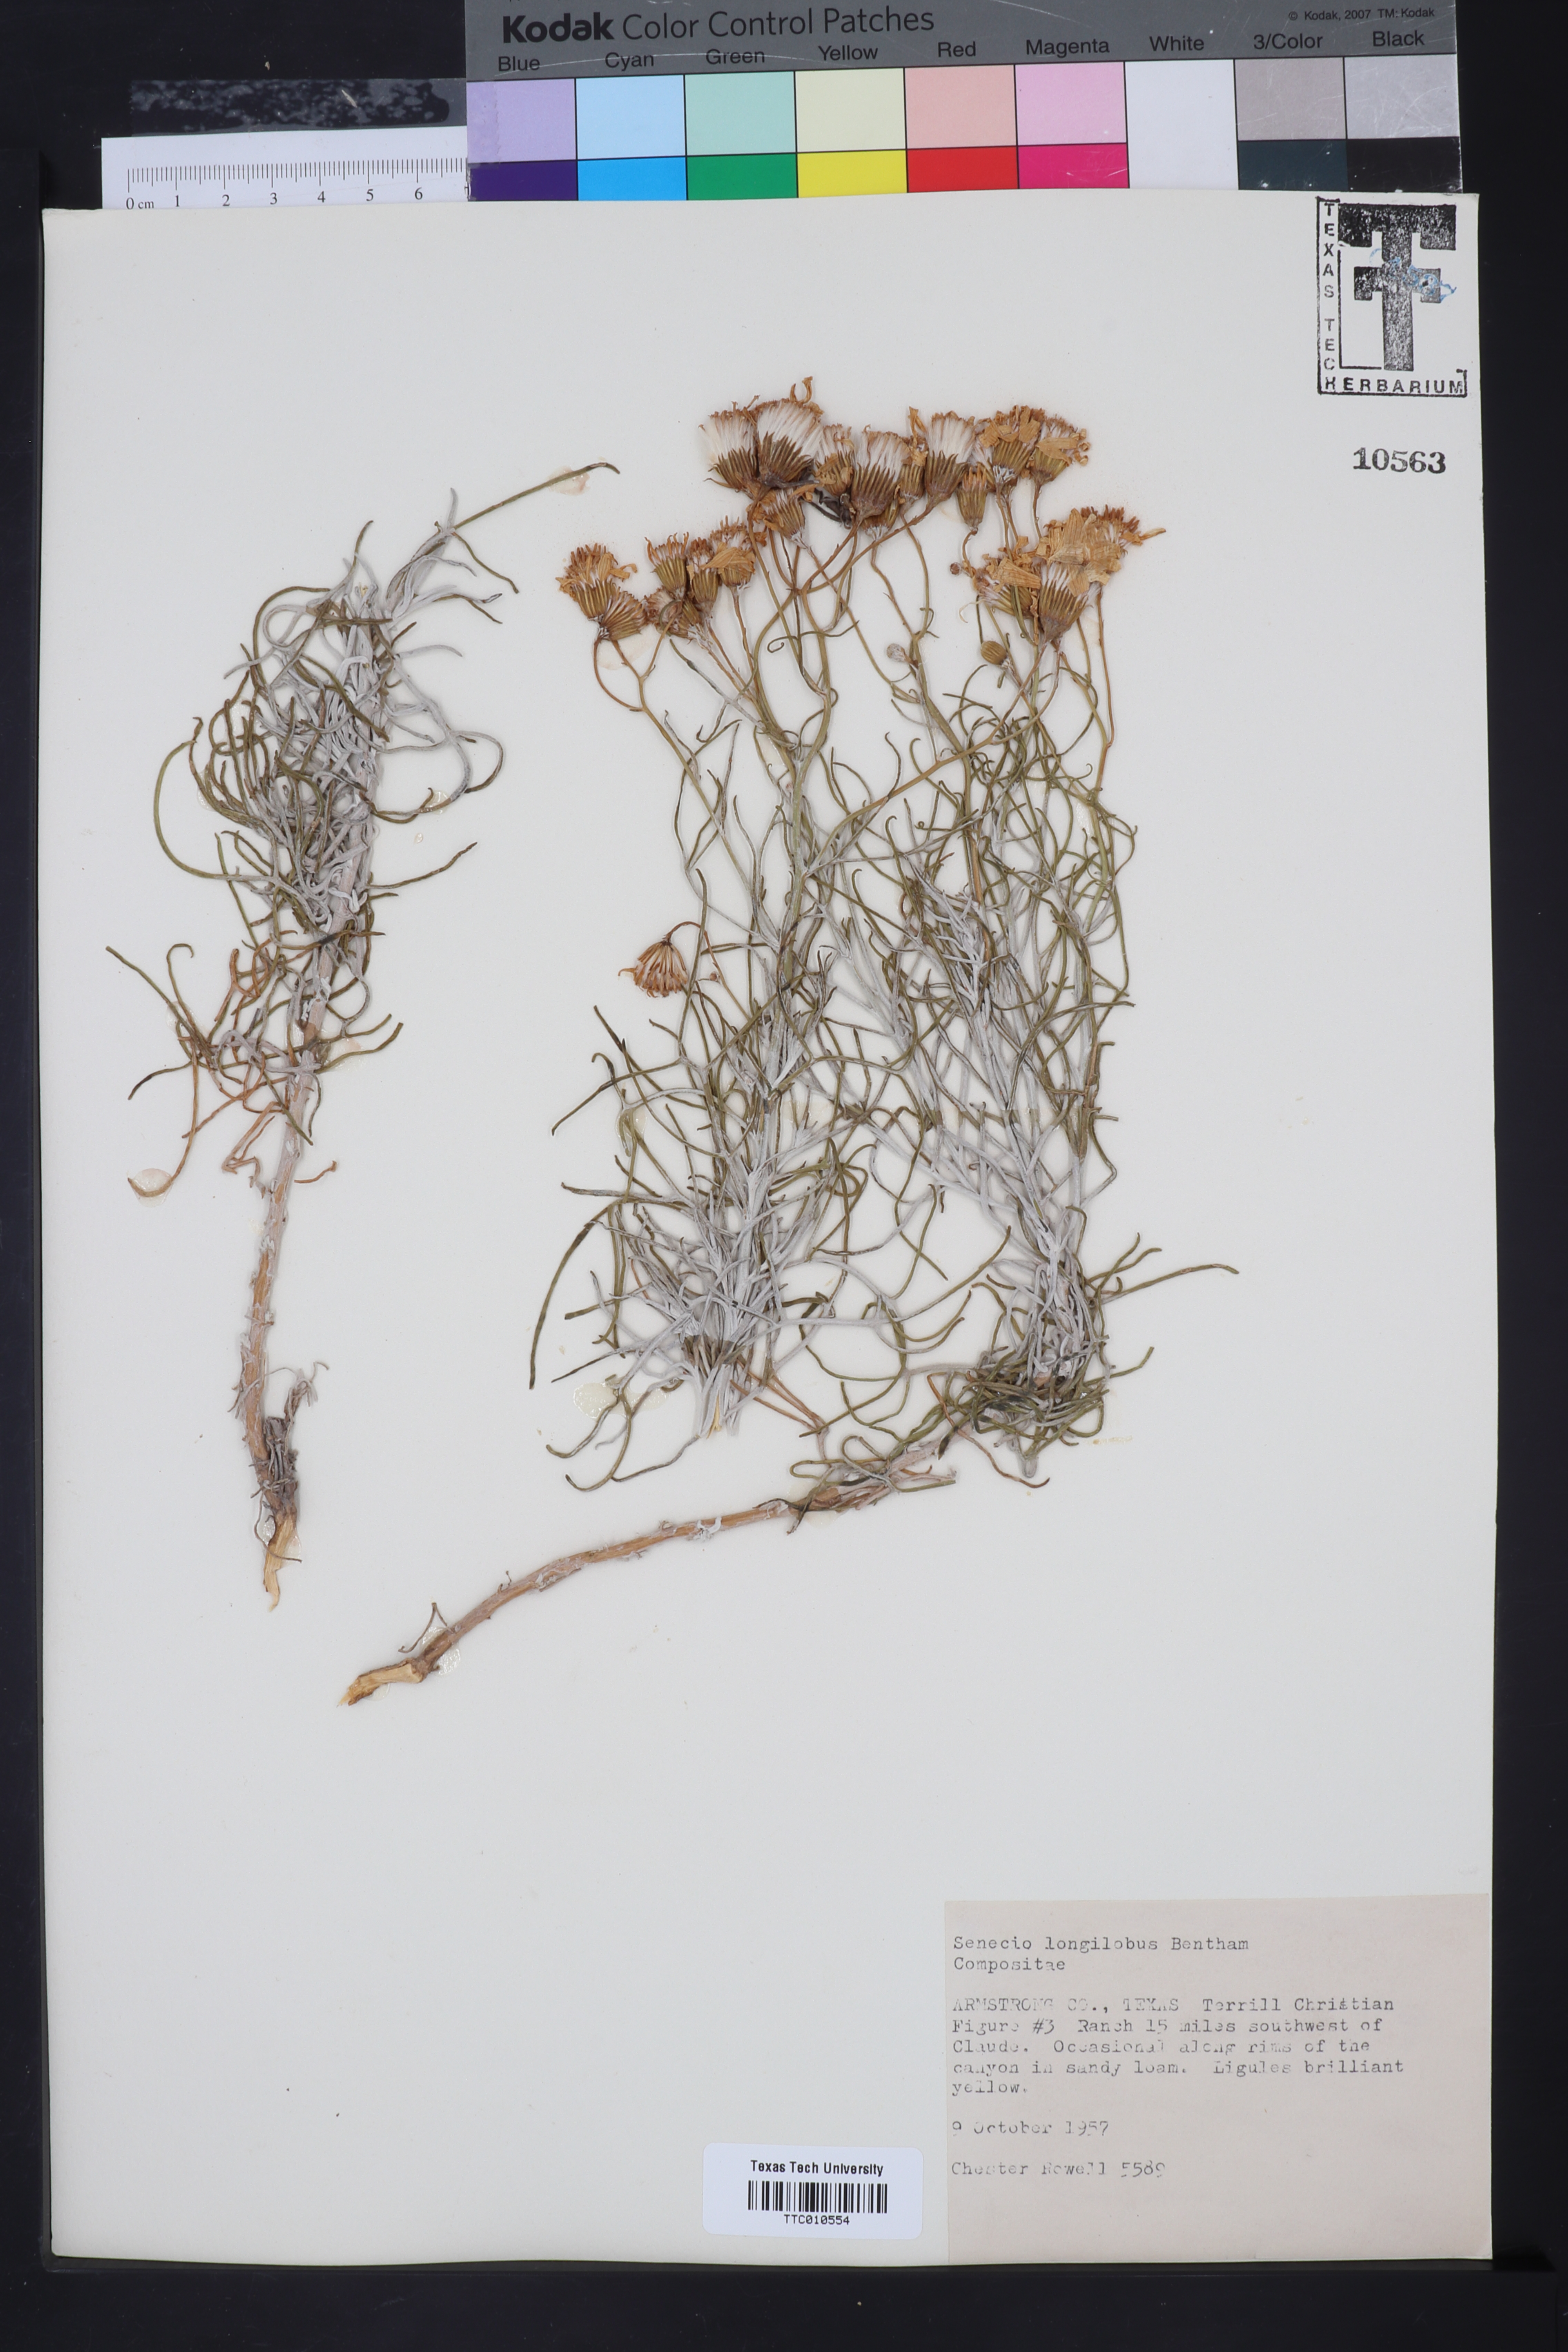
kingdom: Plantae
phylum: Tracheophyta
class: Magnoliopsida
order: Asterales
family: Asteraceae
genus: Senecio
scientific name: Senecio flaccidus
